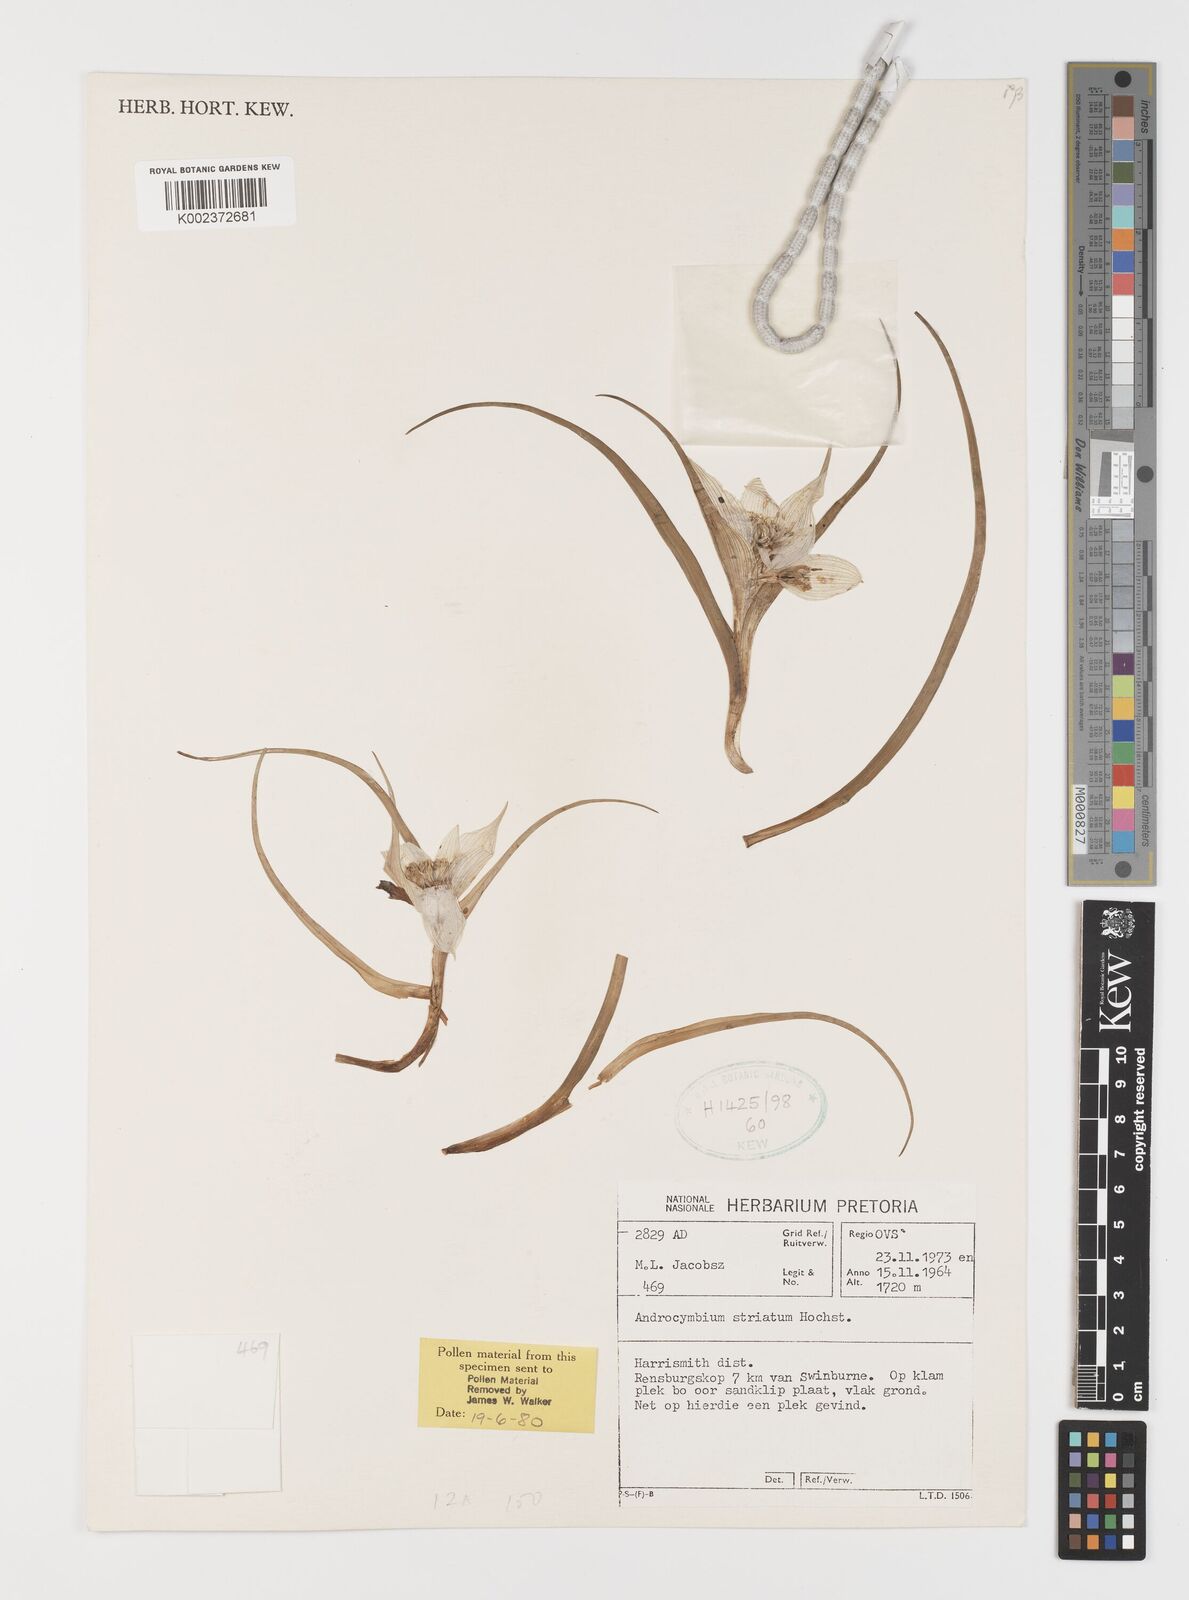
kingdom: Plantae
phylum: Tracheophyta
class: Liliopsida
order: Liliales
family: Colchicaceae
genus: Colchicum
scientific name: Colchicum striatum
